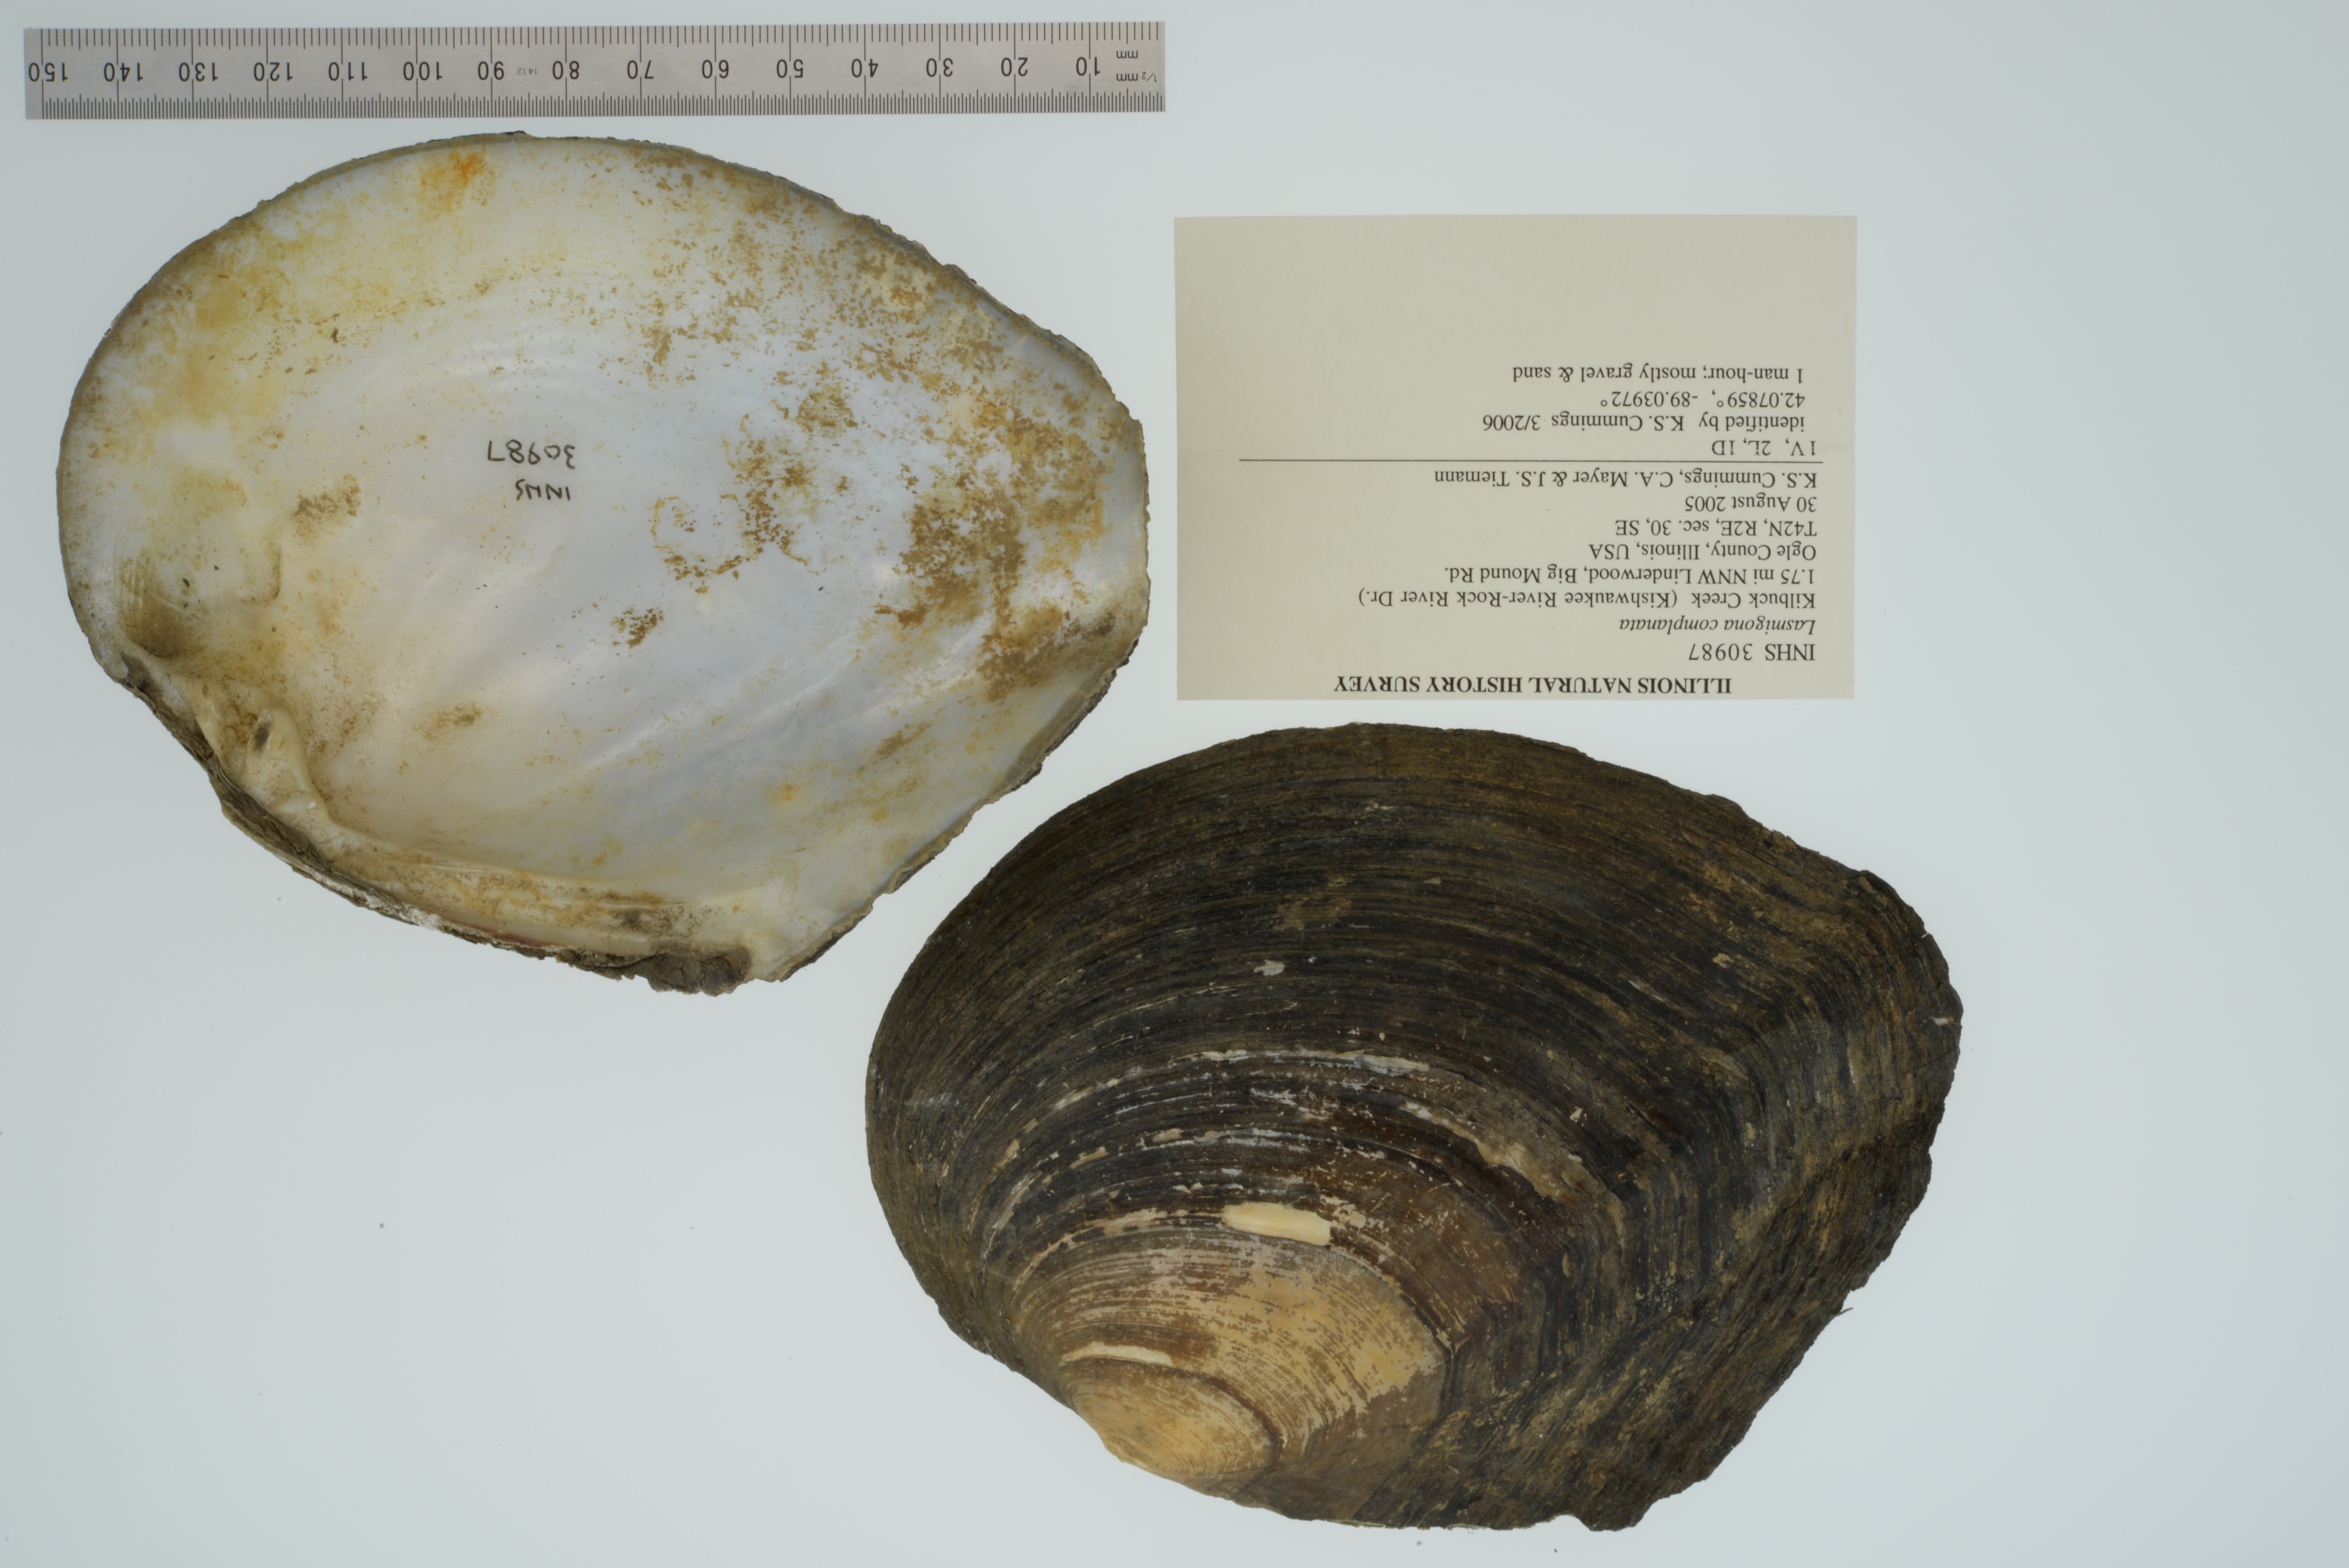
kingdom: Animalia
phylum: Mollusca
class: Bivalvia
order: Unionida
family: Unionidae
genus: Lasmigona
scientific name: Lasmigona complanata
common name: White heelsplitter
